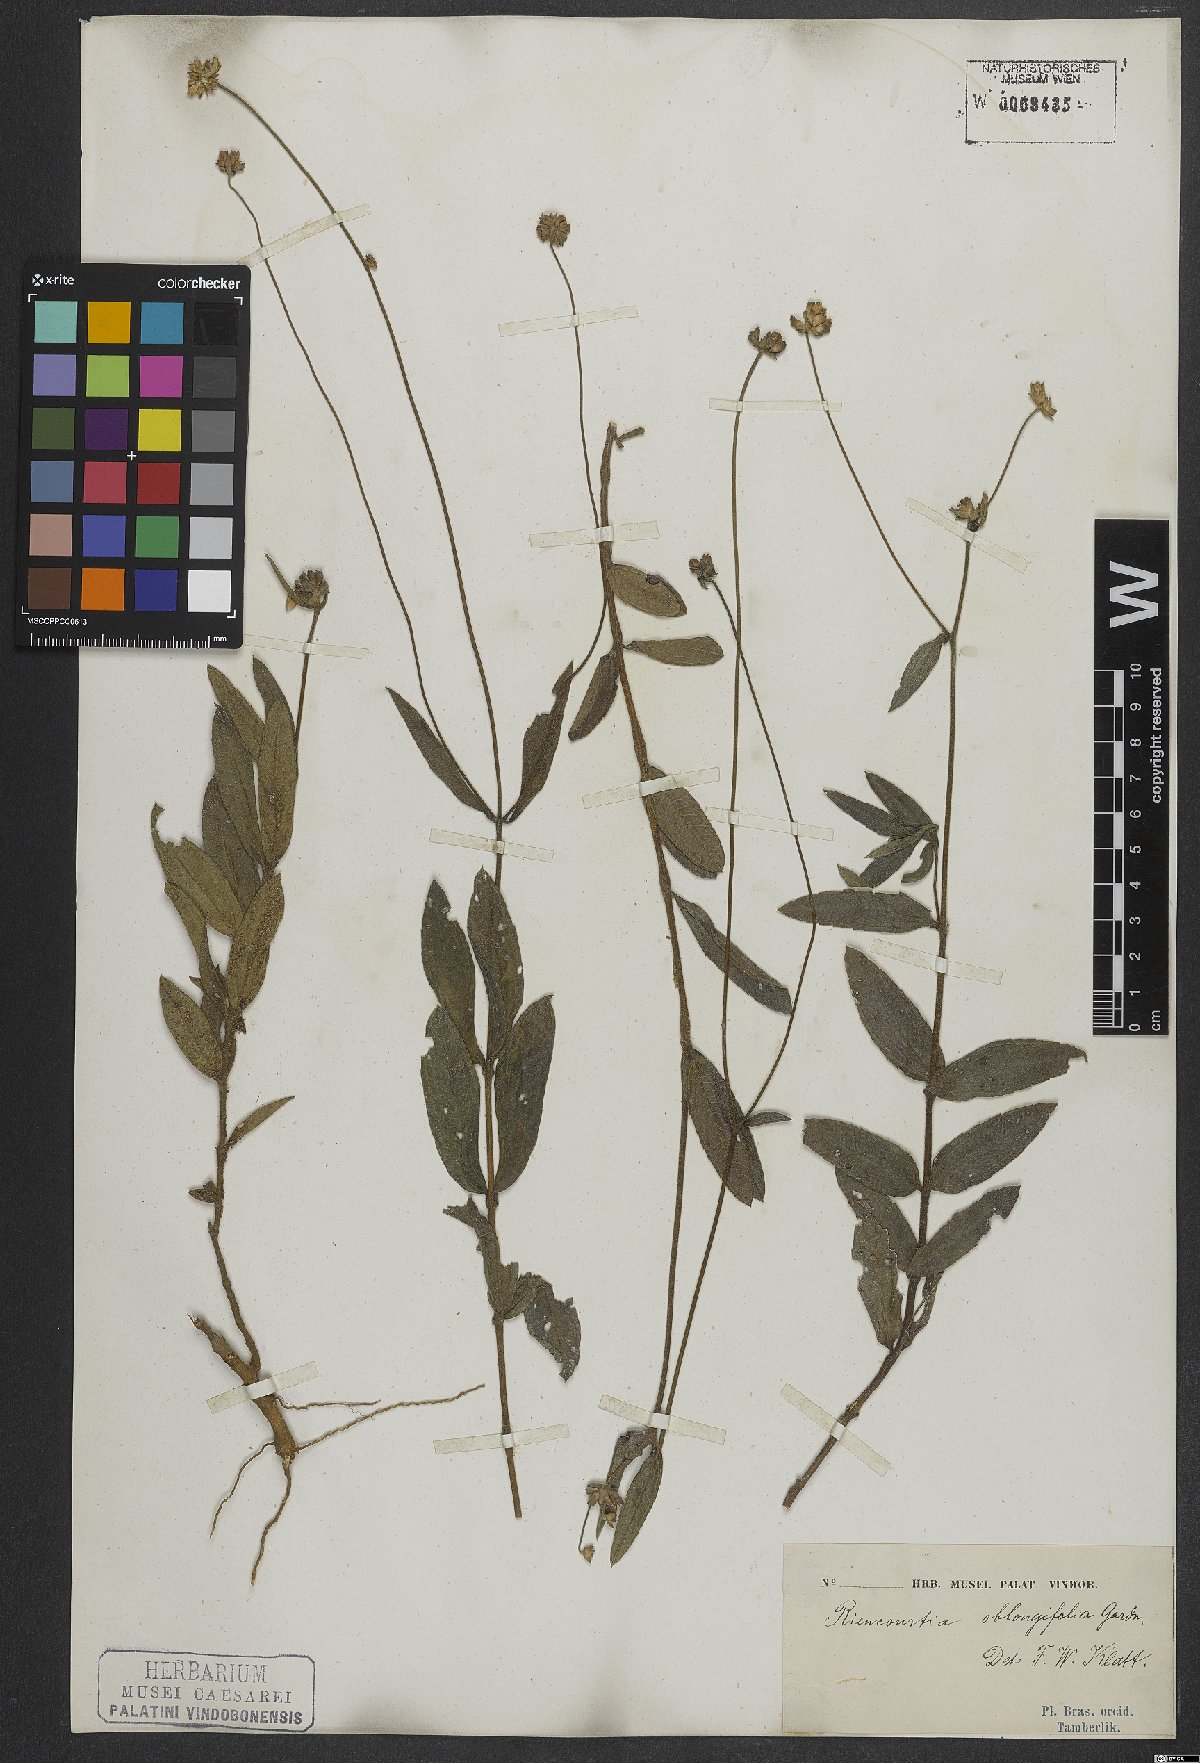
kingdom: Plantae
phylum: Tracheophyta
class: Magnoliopsida
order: Asterales
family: Asteraceae
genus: Riencourtia
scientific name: Riencourtia oblongifolia
